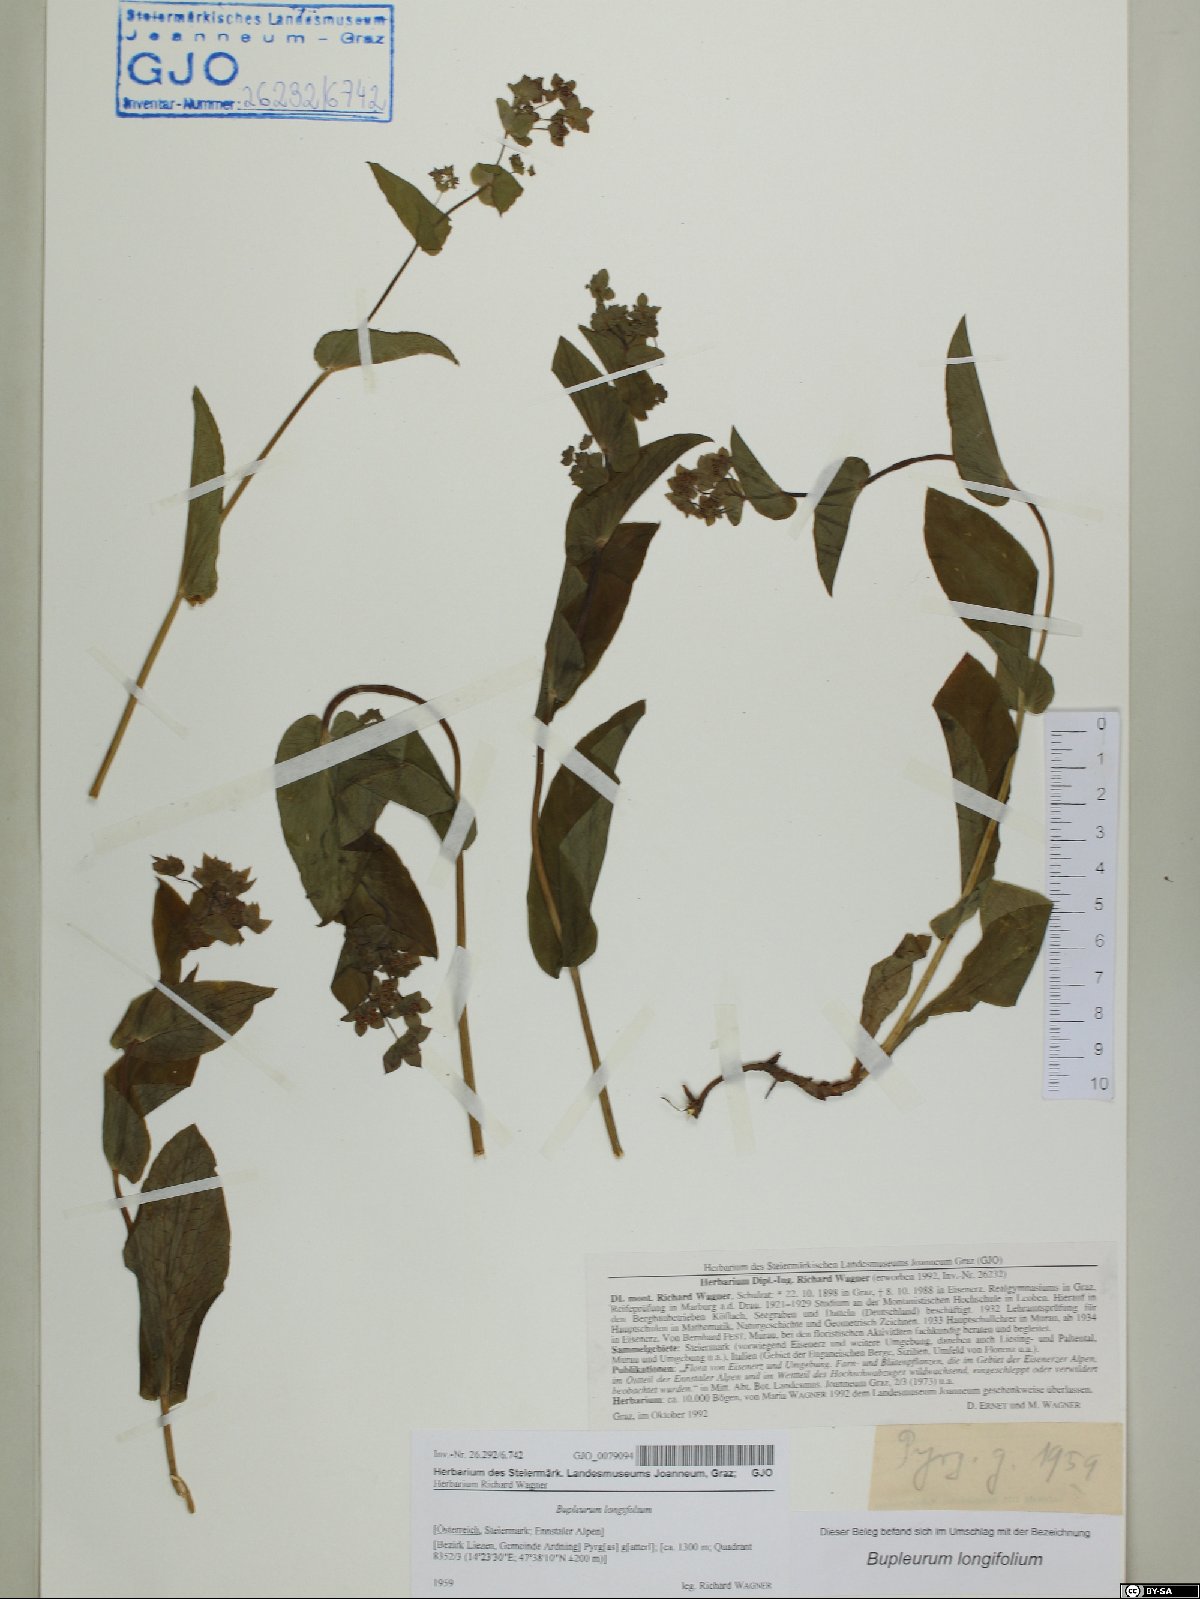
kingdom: Plantae
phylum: Tracheophyta
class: Magnoliopsida
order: Apiales
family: Apiaceae
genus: Bupleurum
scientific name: Bupleurum longifolium
